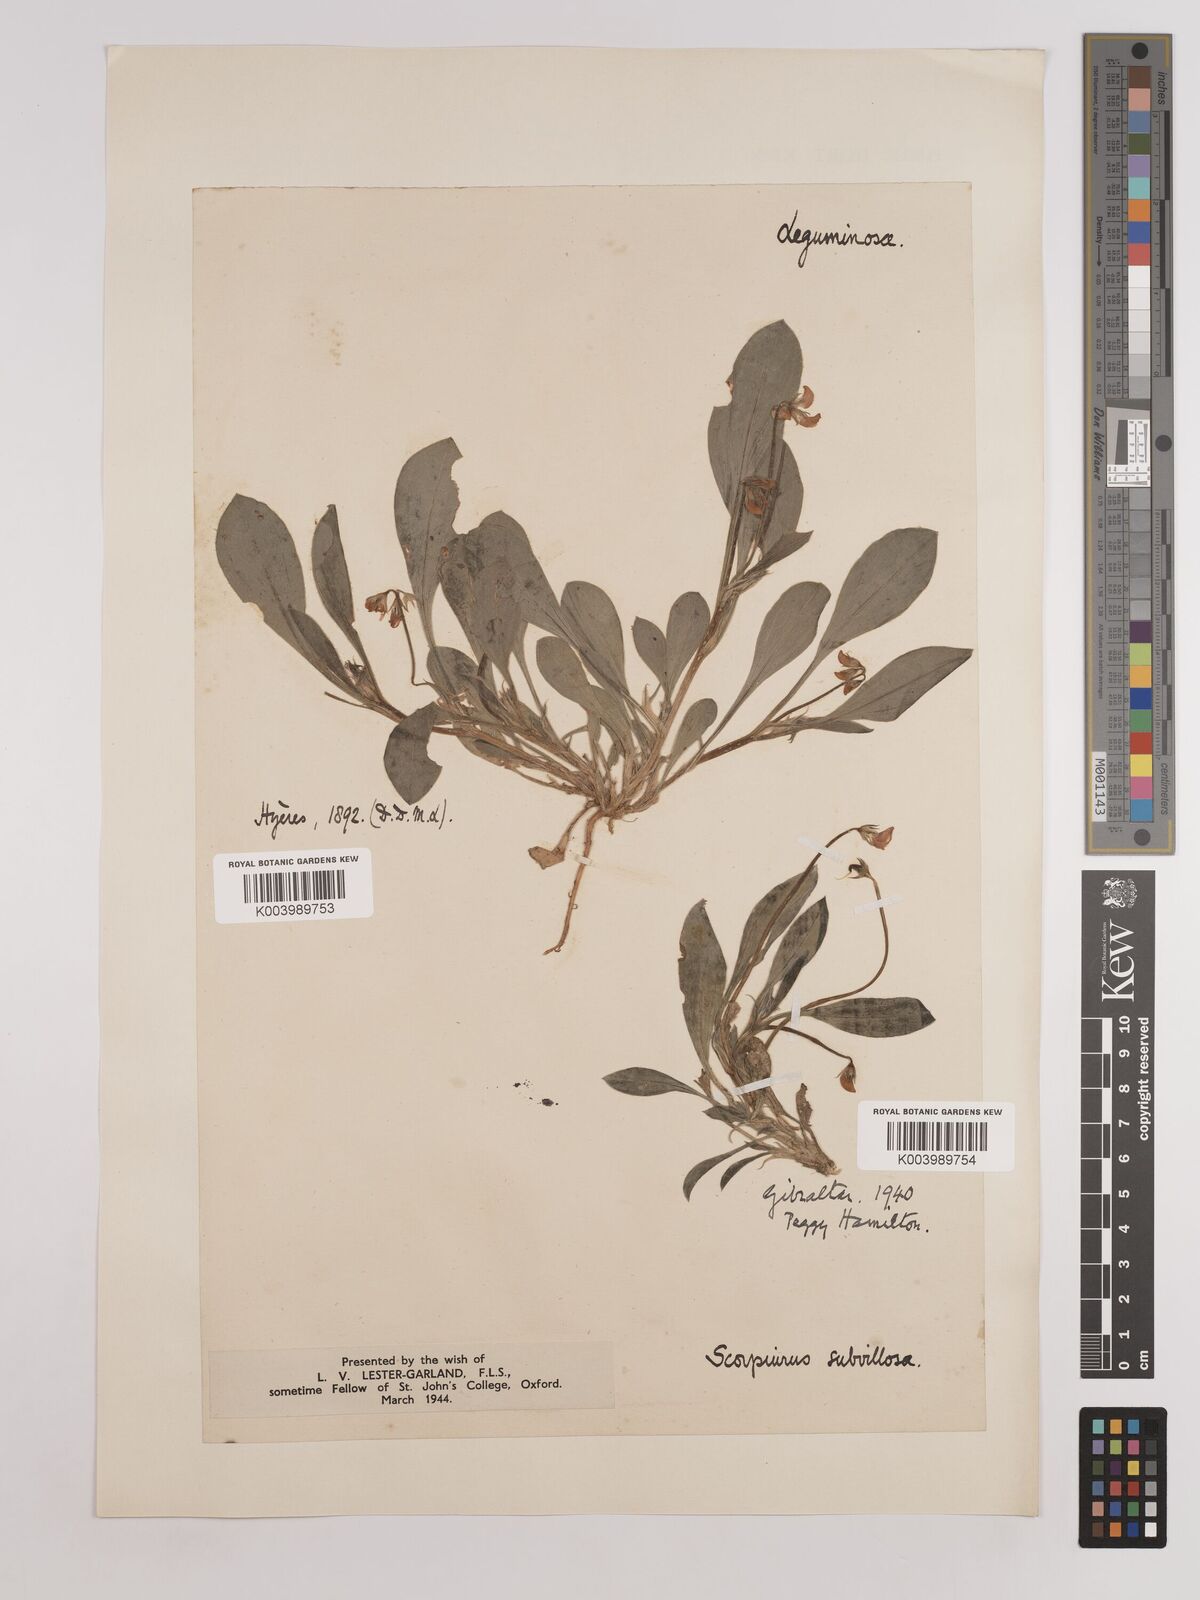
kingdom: Plantae
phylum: Tracheophyta
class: Magnoliopsida
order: Fabales
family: Fabaceae
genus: Scorpiurus
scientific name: Scorpiurus muricatus
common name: Caterpillar-plant
